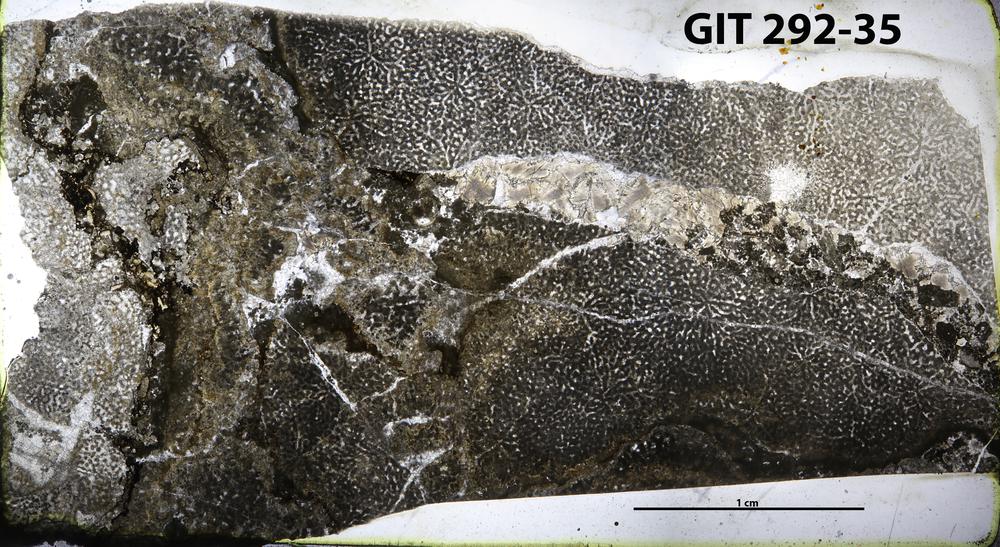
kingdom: Animalia
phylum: Porifera
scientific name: Porifera
